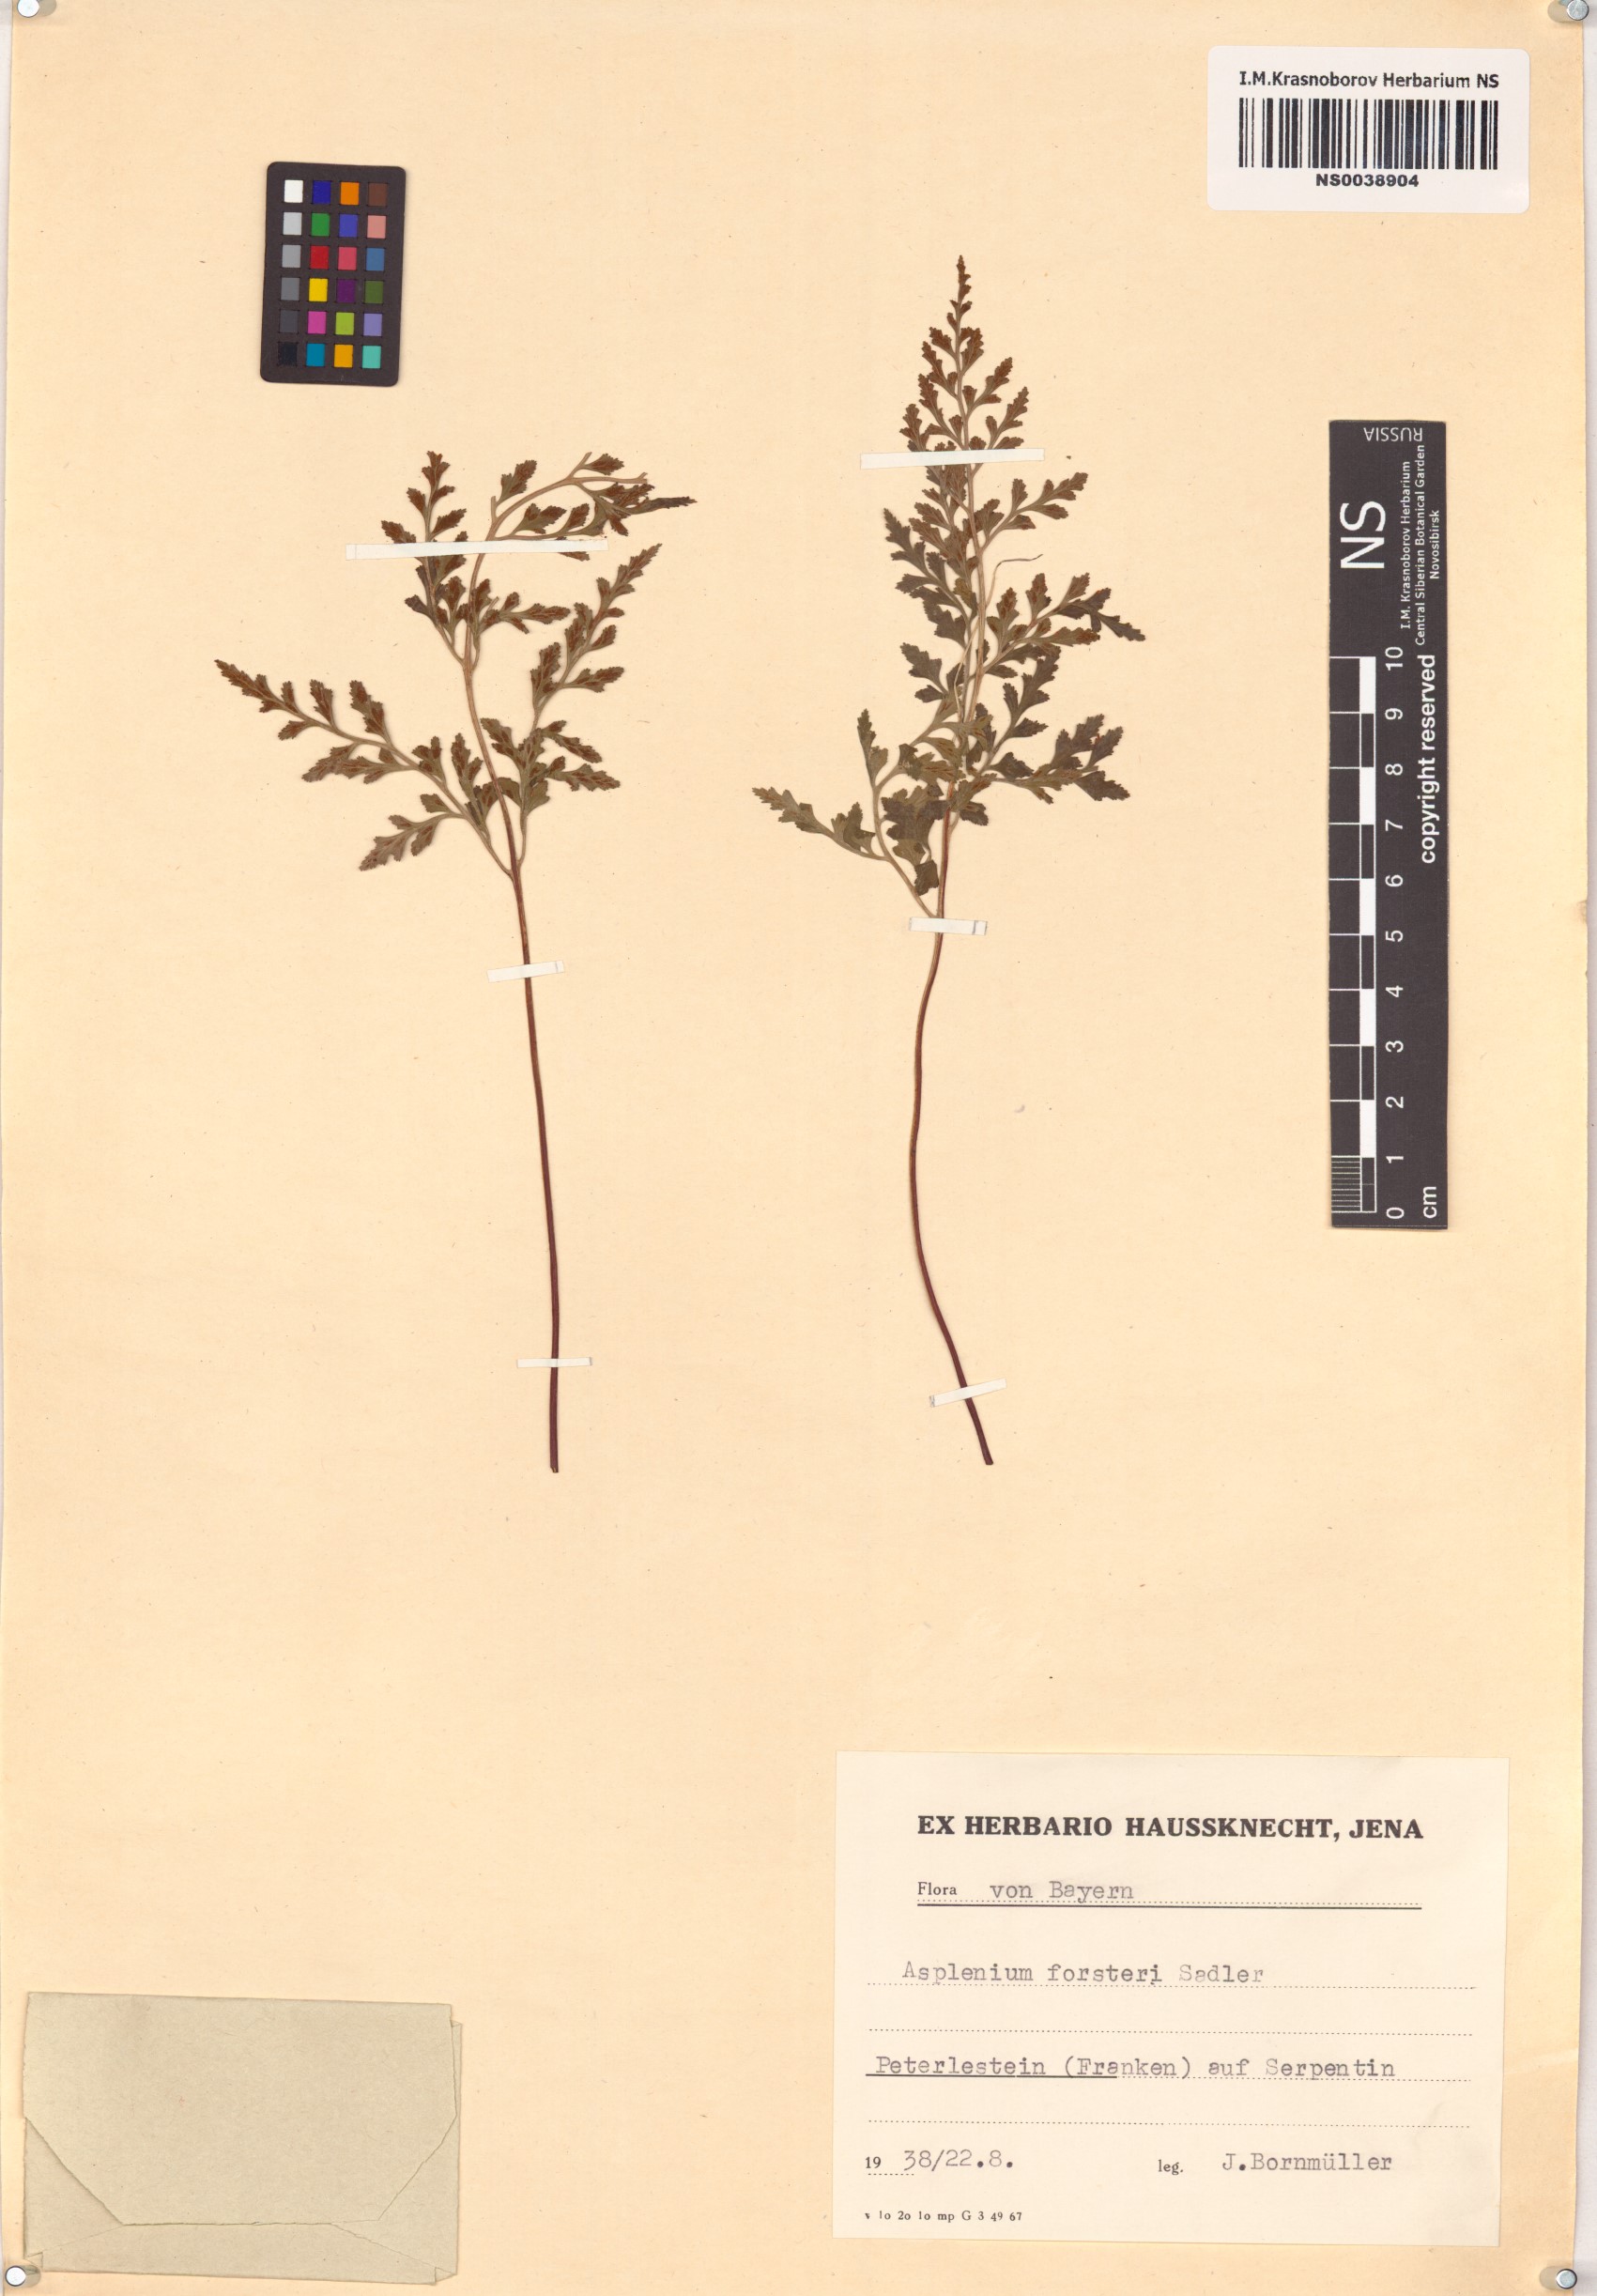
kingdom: Plantae
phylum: Tracheophyta
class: Polypodiopsida
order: Polypodiales
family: Aspleniaceae
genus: Asplenium
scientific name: Asplenium cuneifolium
